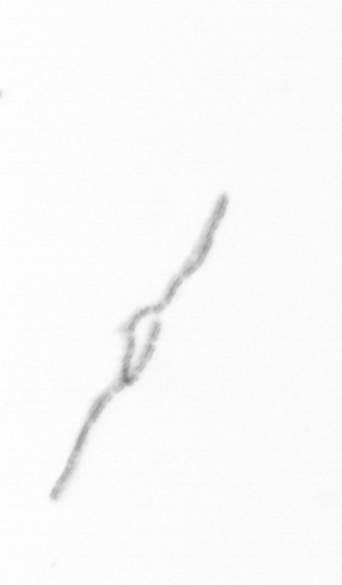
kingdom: Chromista
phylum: Ochrophyta
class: Bacillariophyceae
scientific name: Bacillariophyceae
